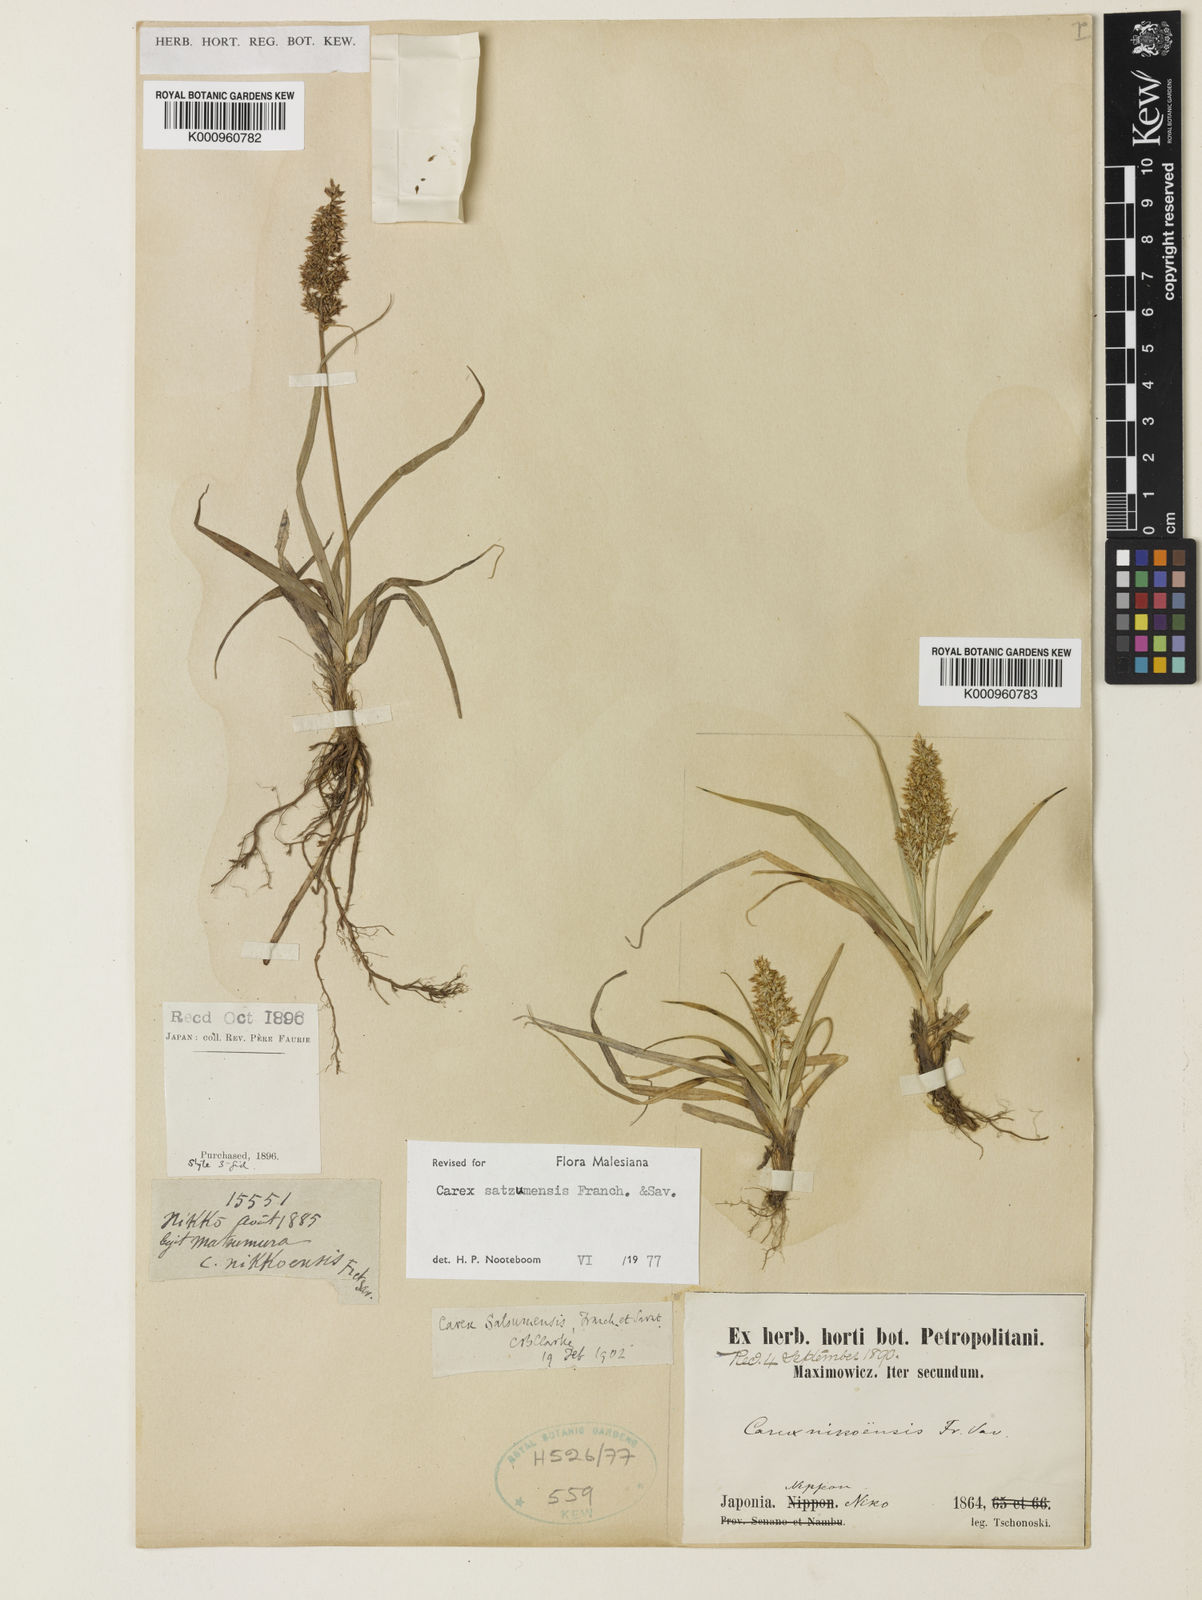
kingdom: Plantae
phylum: Tracheophyta
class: Liliopsida
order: Poales
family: Cyperaceae
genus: Carex
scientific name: Carex satsumensis
